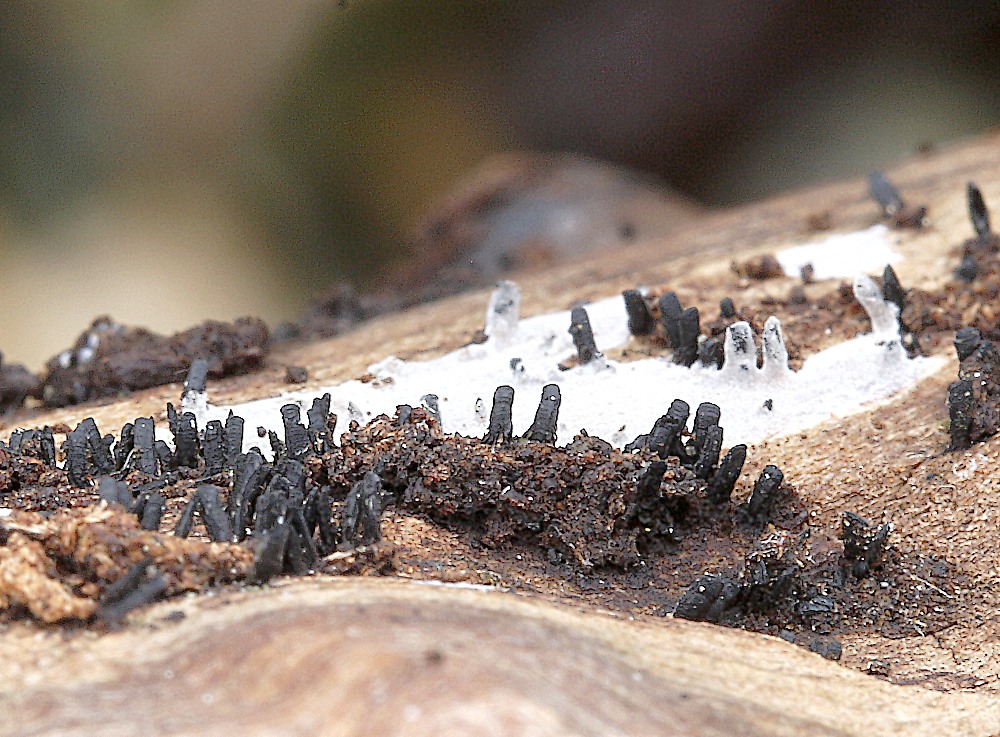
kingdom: Fungi
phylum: Ascomycota
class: Eurotiomycetes
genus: Glyphium
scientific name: Glyphium elatum
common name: kuløkse
